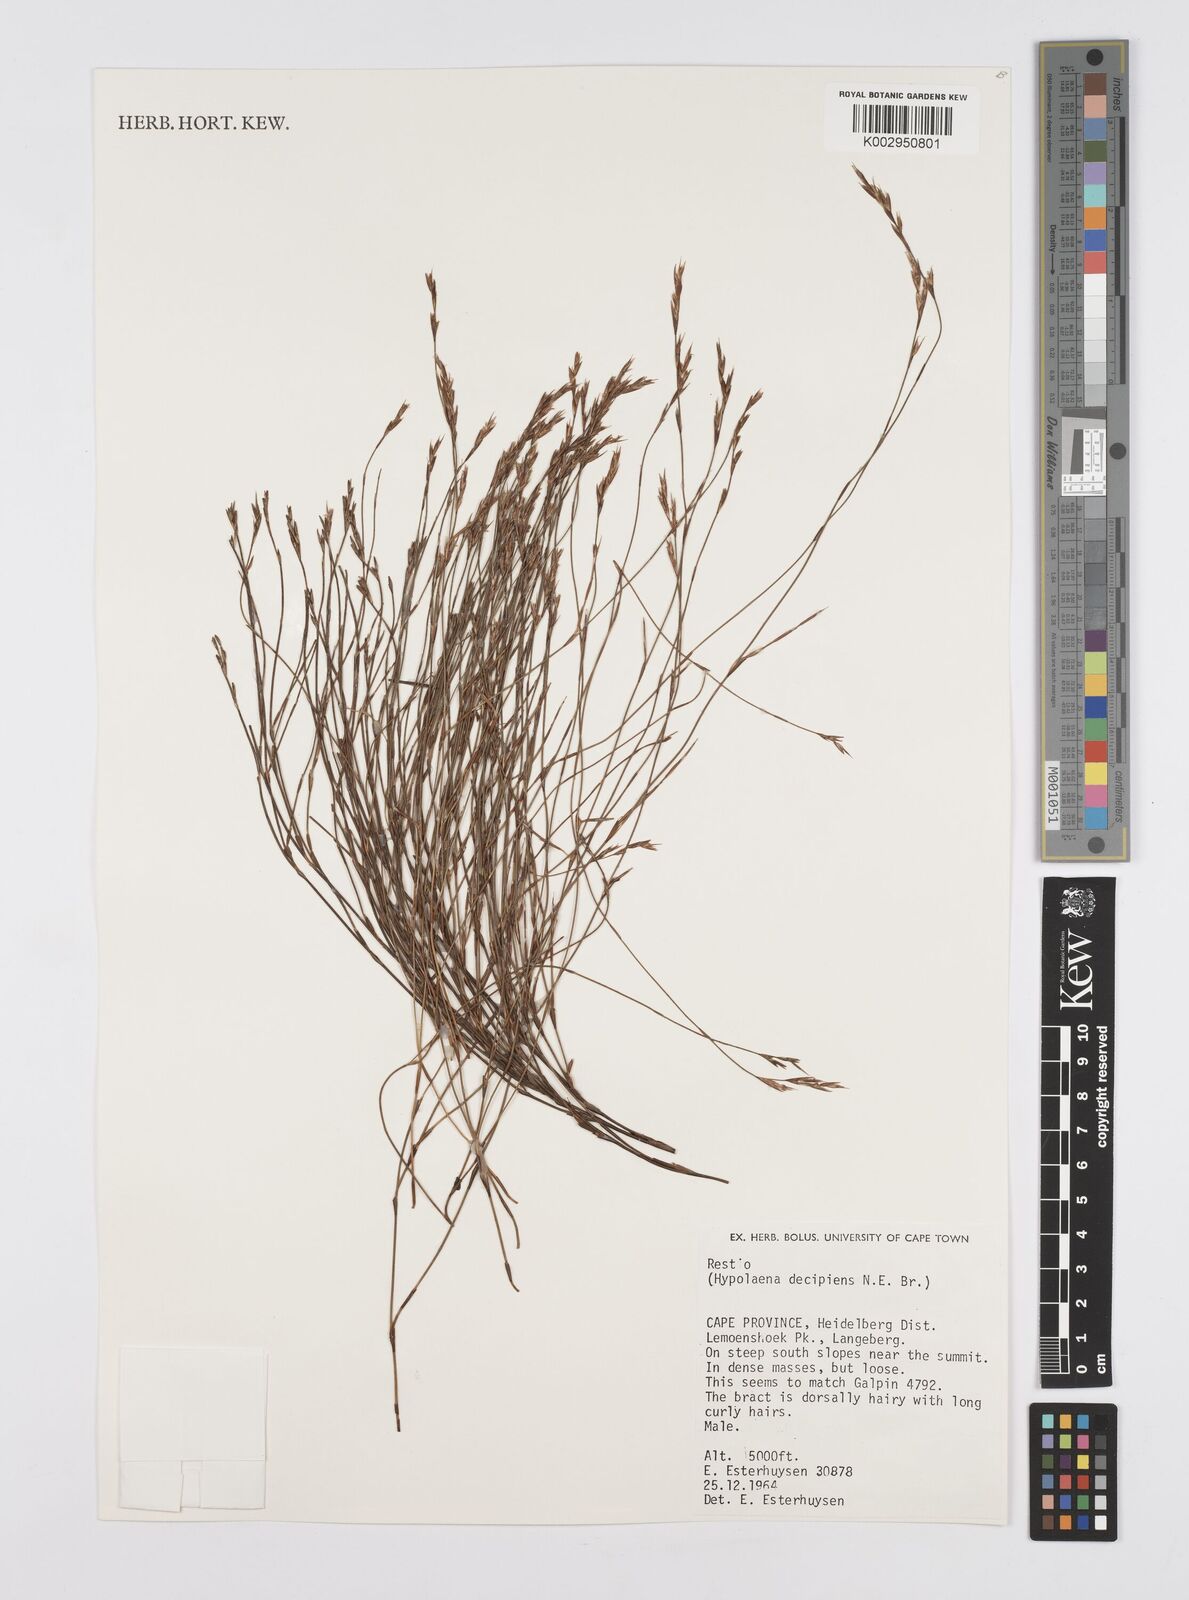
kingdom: Plantae
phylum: Tracheophyta
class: Liliopsida
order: Poales
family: Restionaceae
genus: Restio
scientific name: Restio decipiens
